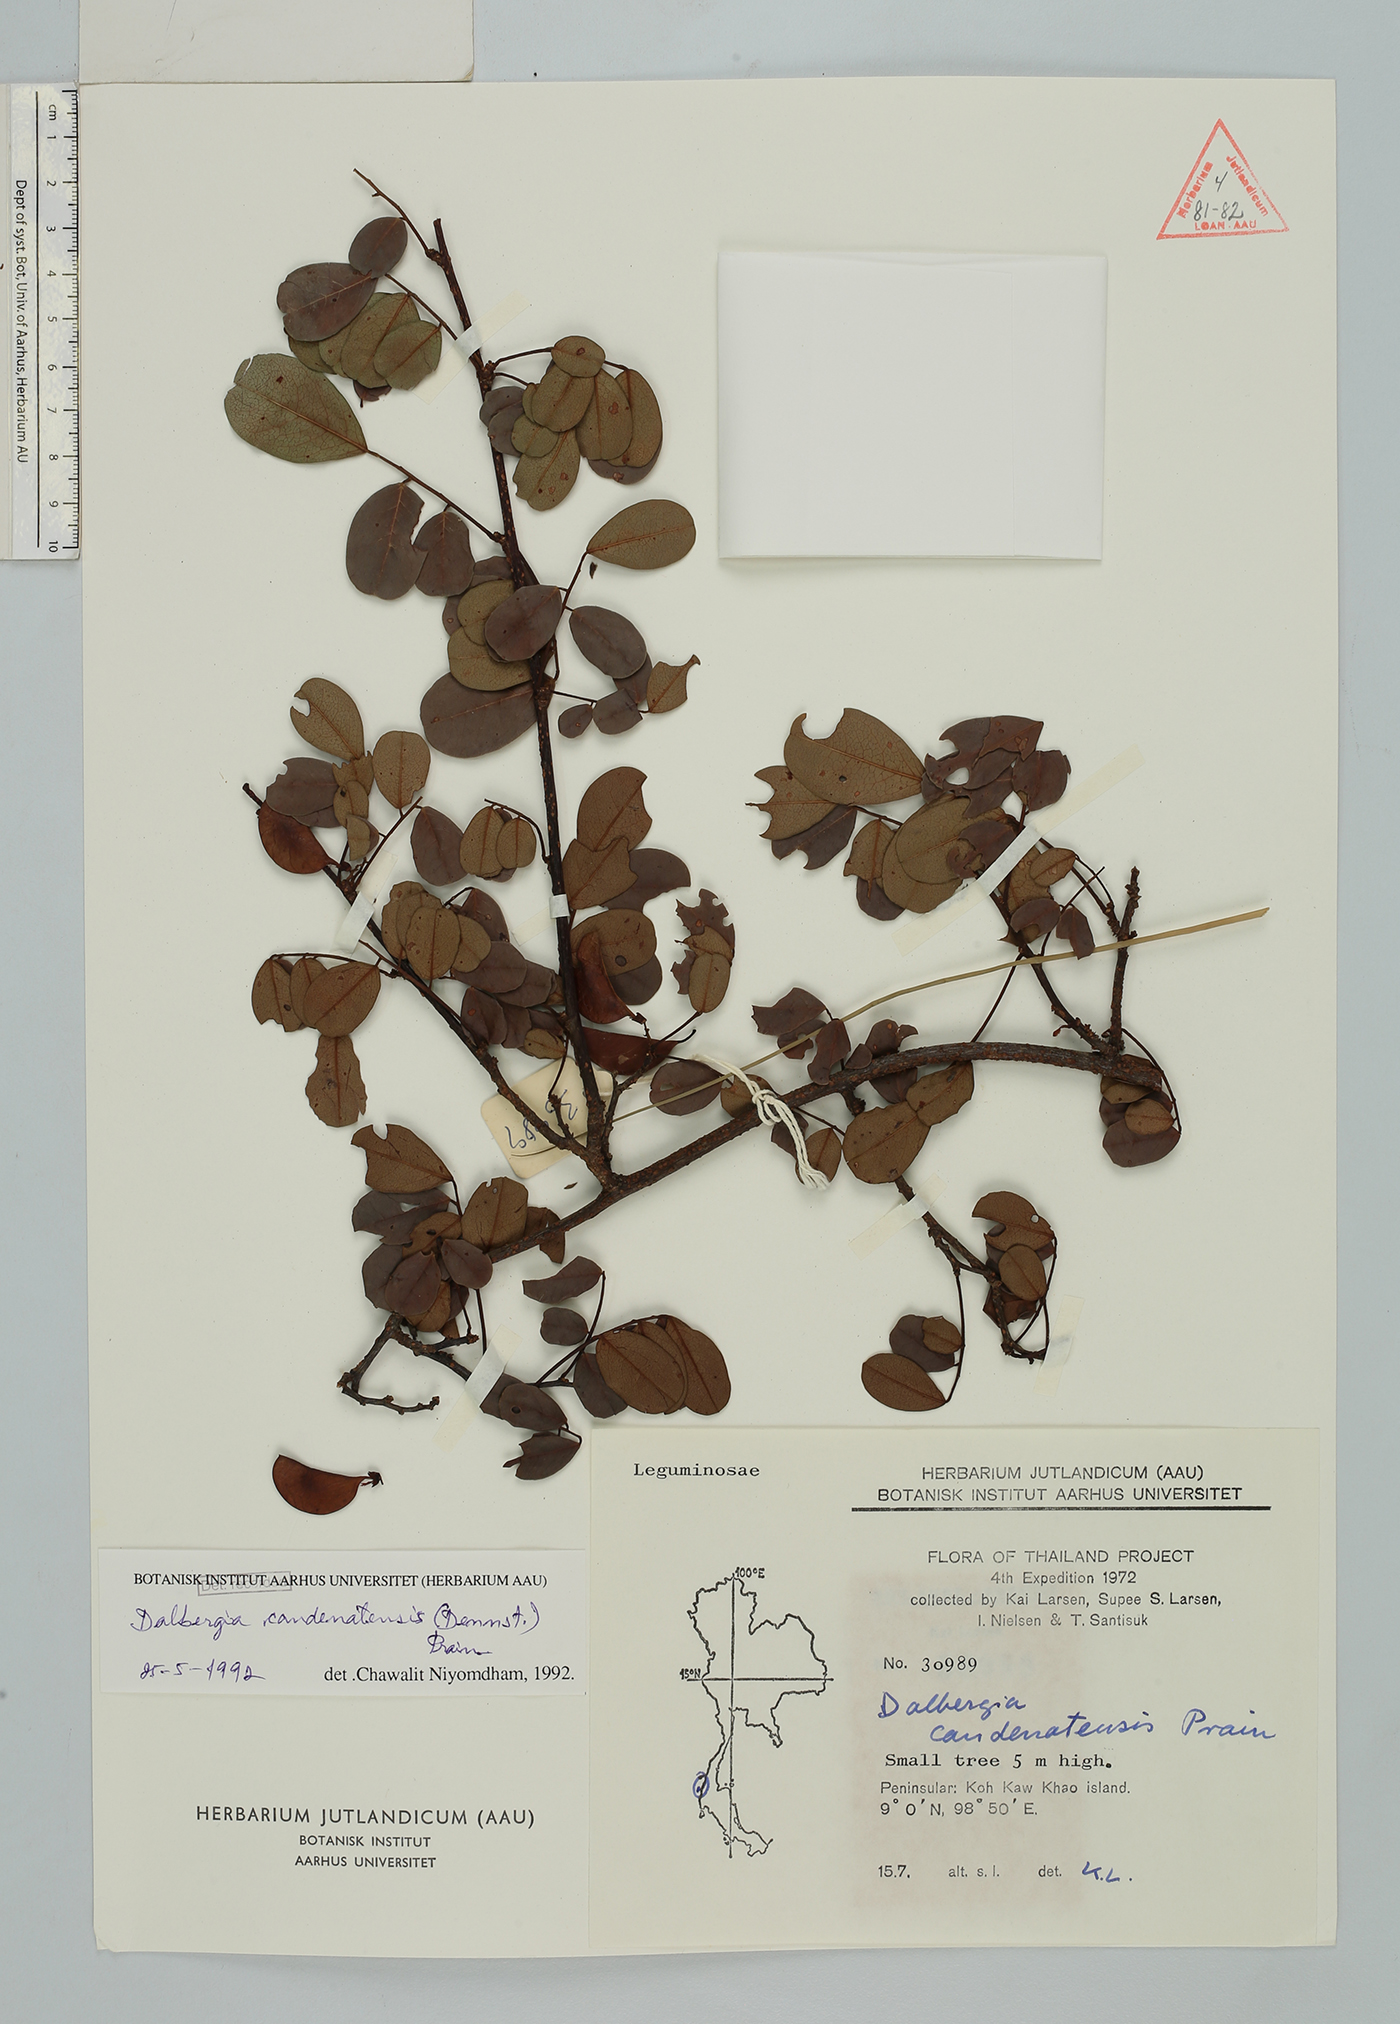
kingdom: Plantae
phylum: Tracheophyta
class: Magnoliopsida
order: Fabales
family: Fabaceae
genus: Dalbergia
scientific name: Dalbergia candenatensis
